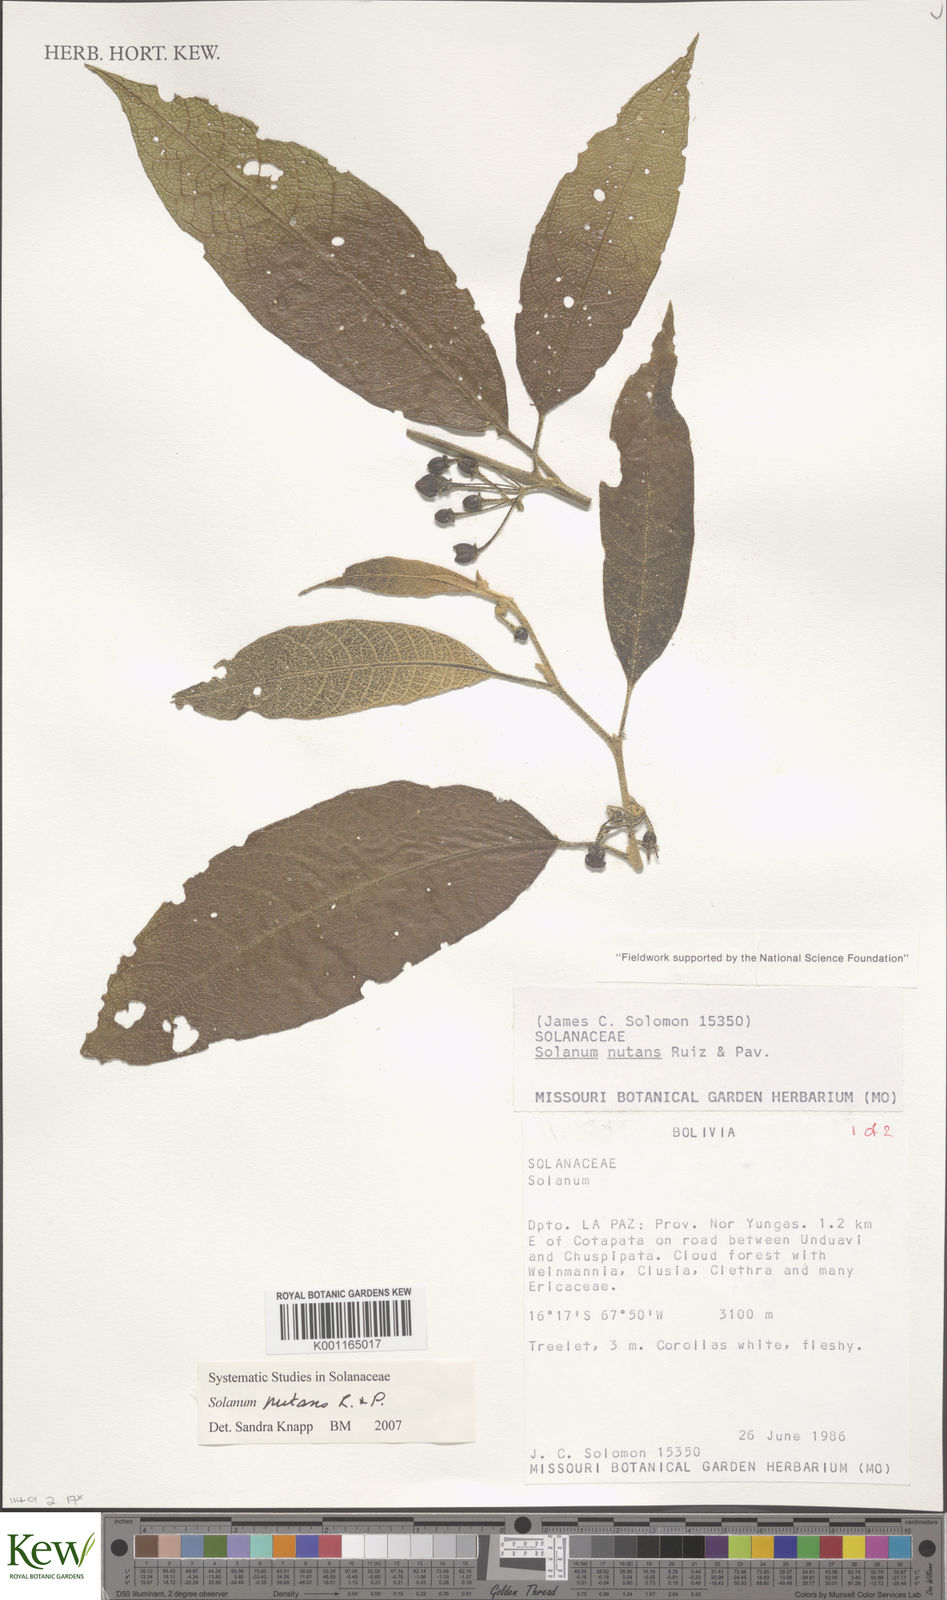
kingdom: Plantae
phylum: Tracheophyta
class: Magnoliopsida
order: Solanales
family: Solanaceae
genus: Solanum
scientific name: Solanum nutans
